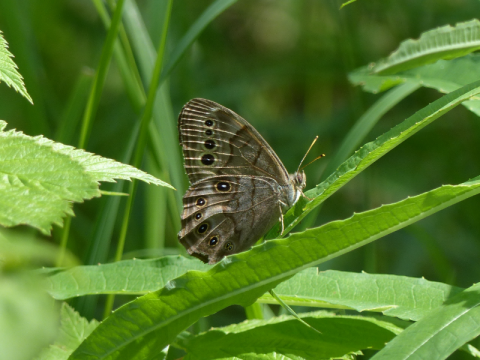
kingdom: Animalia
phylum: Arthropoda
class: Insecta
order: Lepidoptera
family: Nymphalidae
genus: Lethe
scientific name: Lethe anthedon
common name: Northern Pearly-Eye
